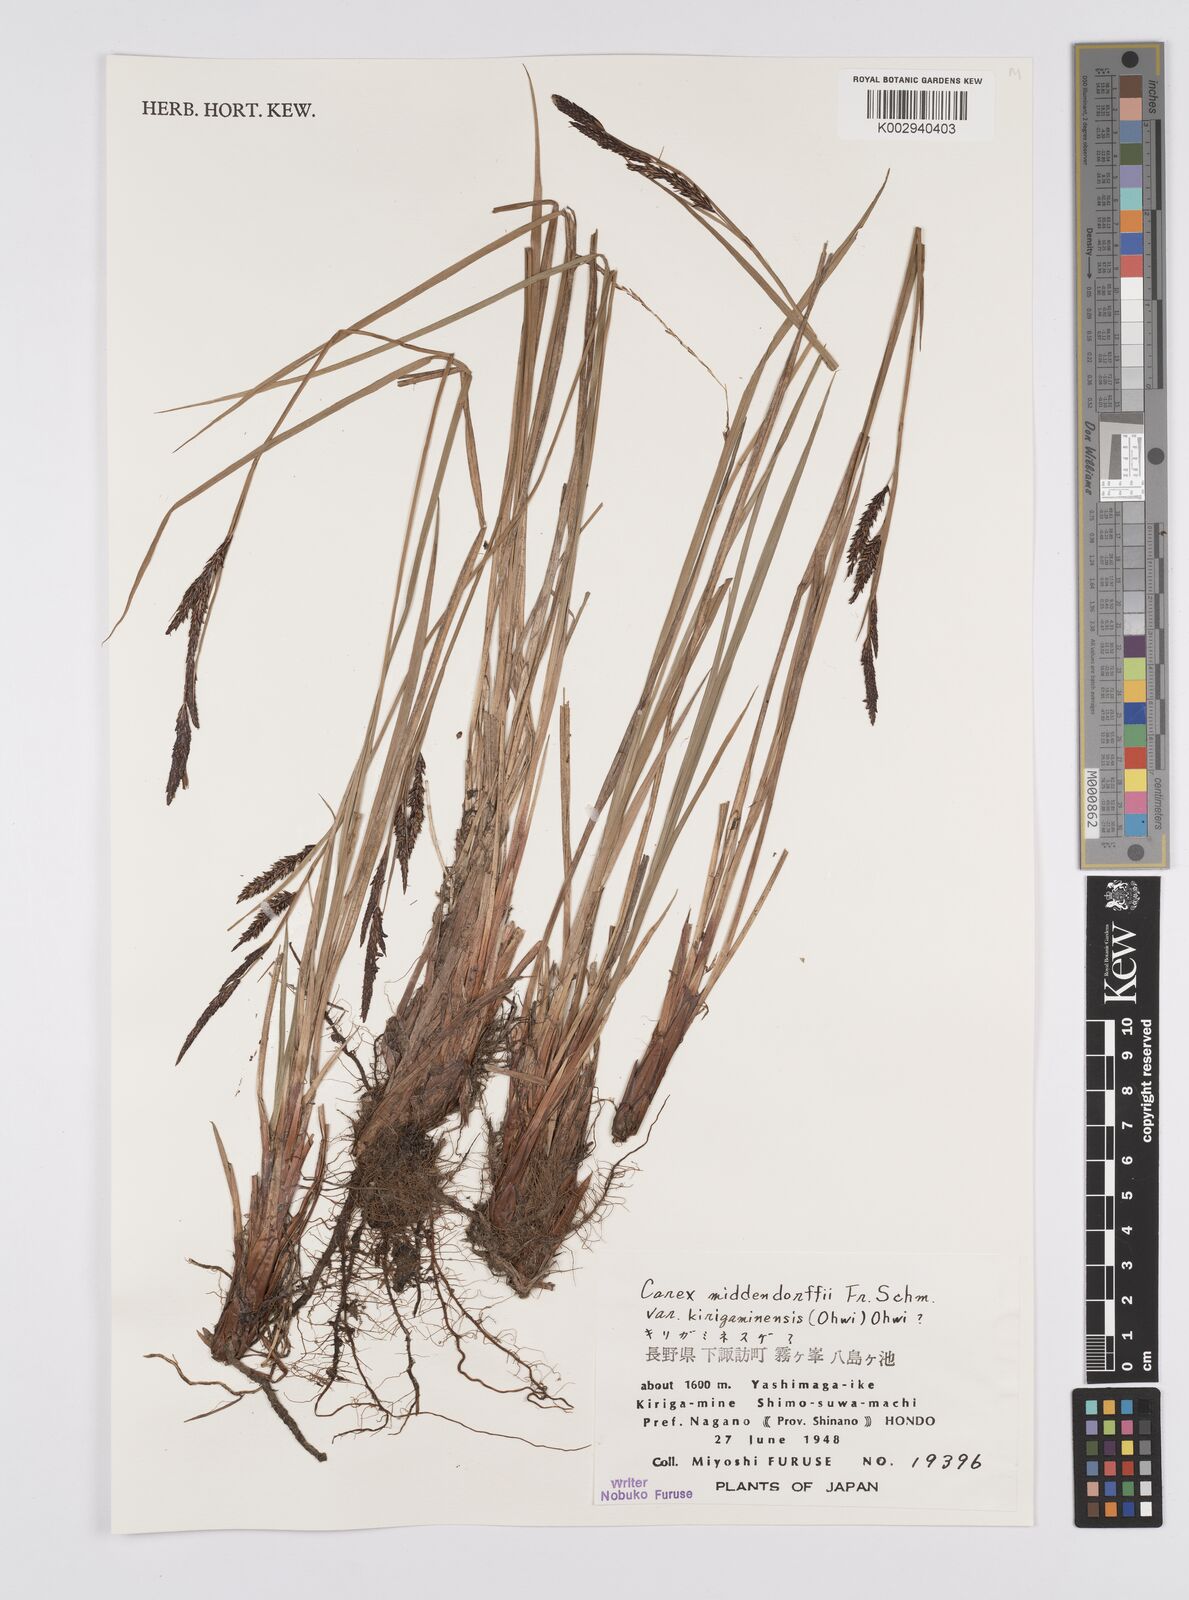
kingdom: Plantae
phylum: Tracheophyta
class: Liliopsida
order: Poales
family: Cyperaceae
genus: Carex
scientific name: Carex middendorffii
